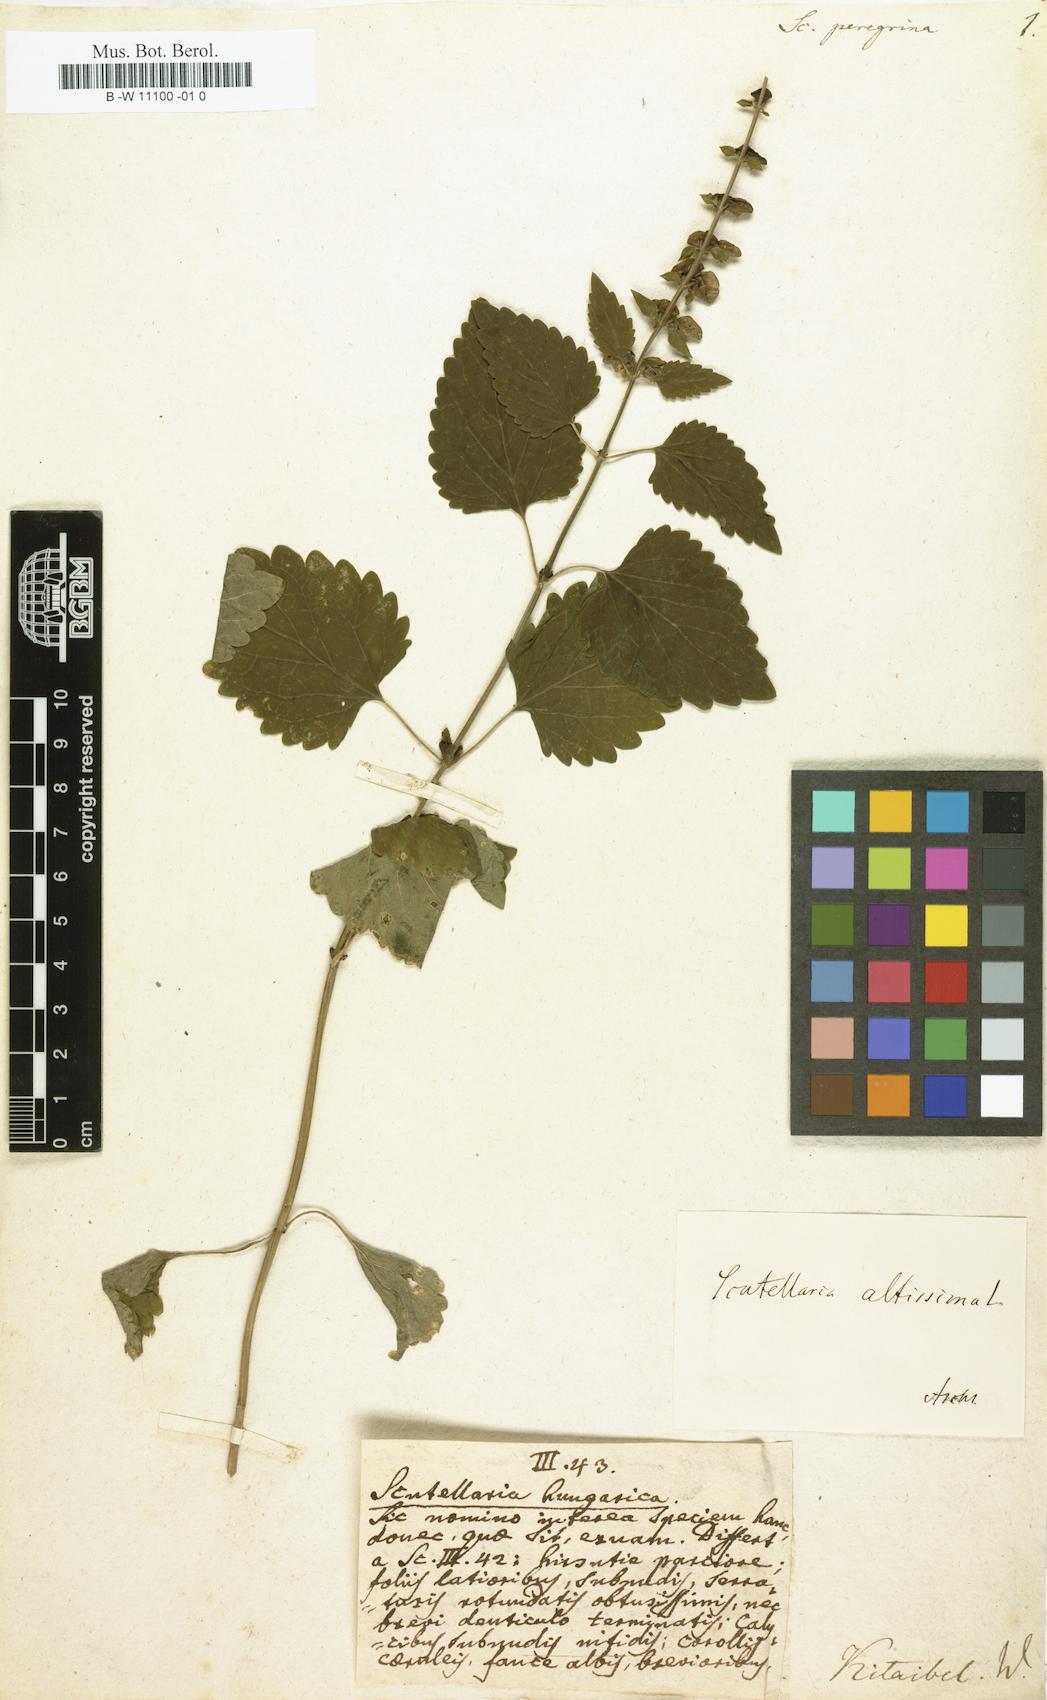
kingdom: Plantae
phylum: Tracheophyta
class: Magnoliopsida
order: Lamiales
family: Lamiaceae
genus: Scutellaria
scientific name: Scutellaria peregrina
